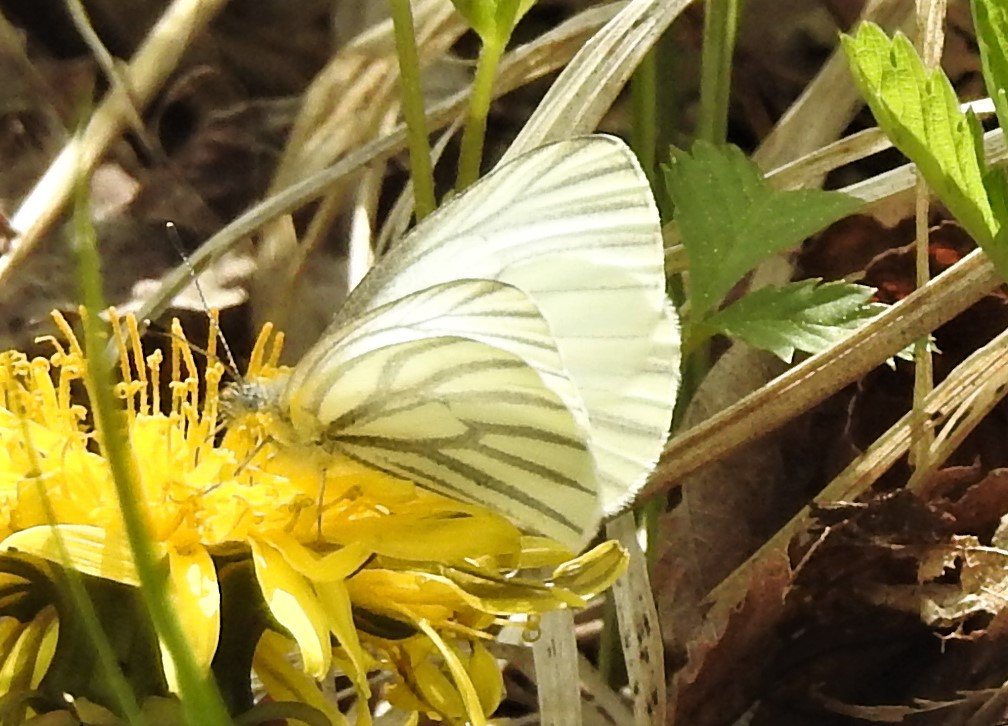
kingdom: Animalia
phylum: Arthropoda
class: Insecta
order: Lepidoptera
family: Pieridae
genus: Pieris
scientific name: Pieris oleracea
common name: Mustard White
